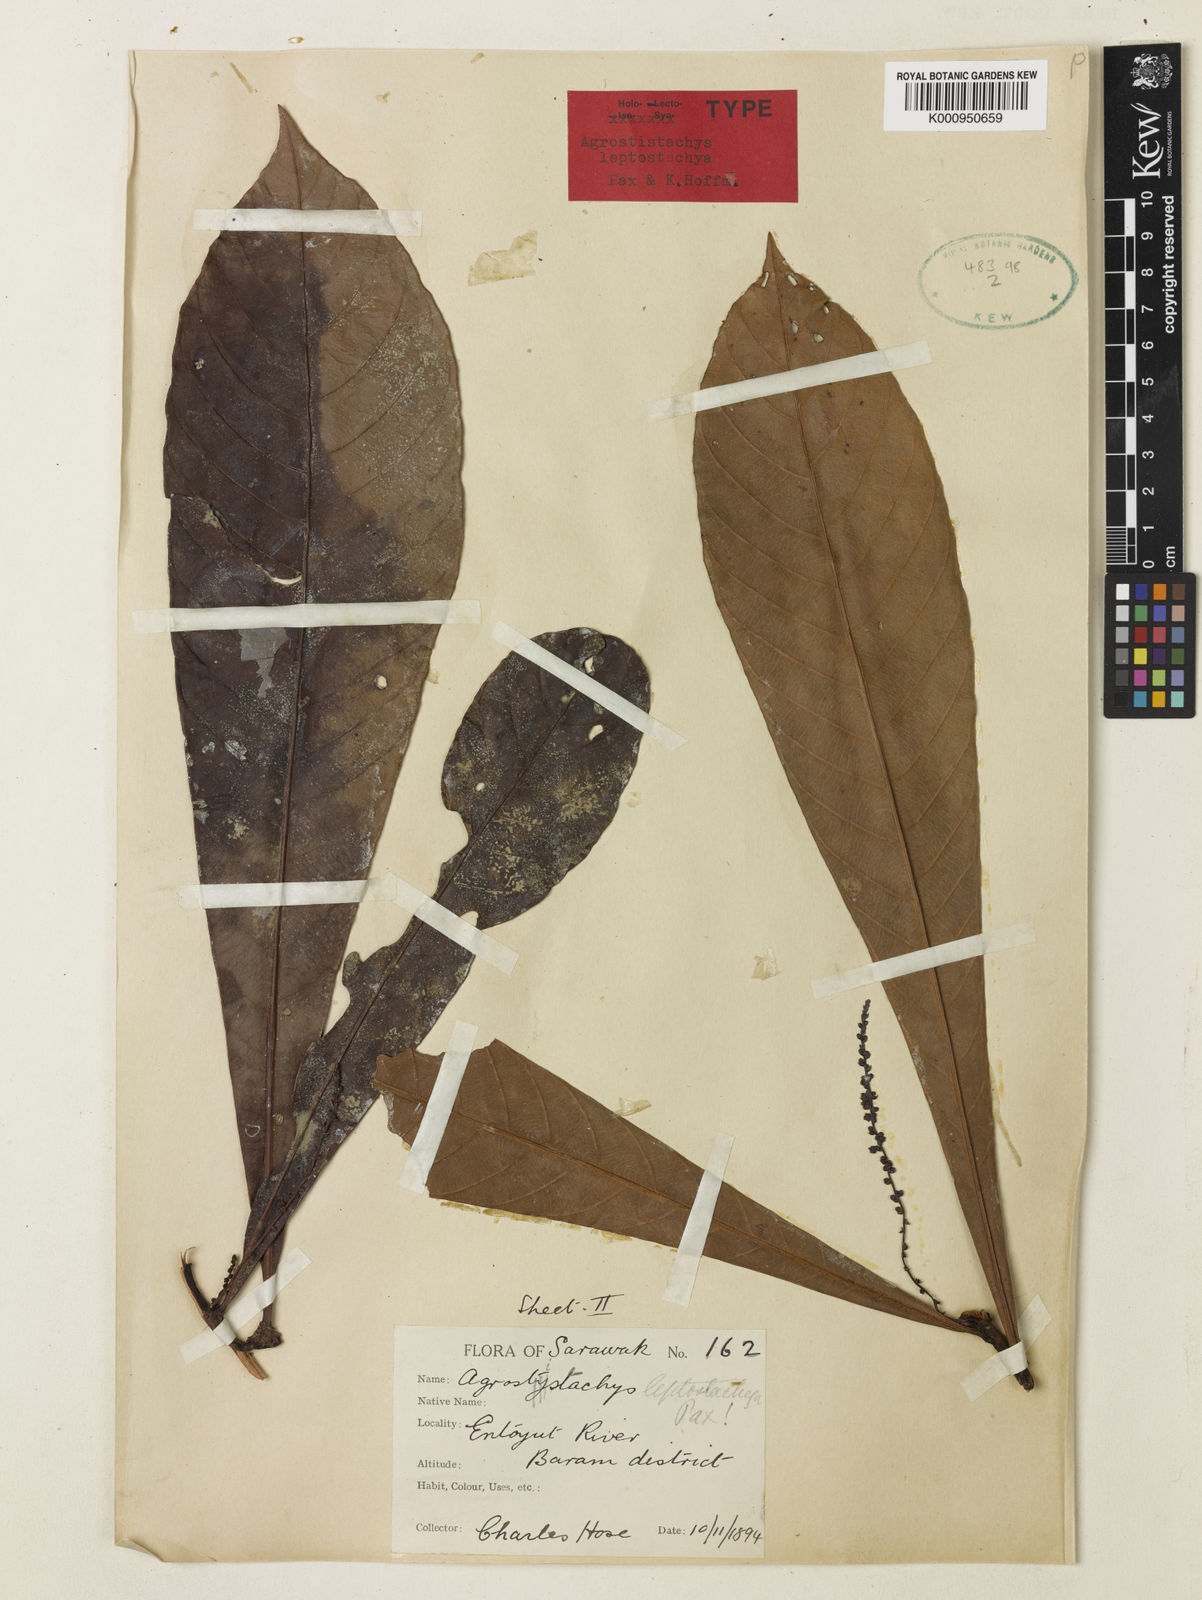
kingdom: Plantae
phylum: Tracheophyta
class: Magnoliopsida
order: Malpighiales
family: Euphorbiaceae
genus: Agrostistachys
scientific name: Agrostistachys
